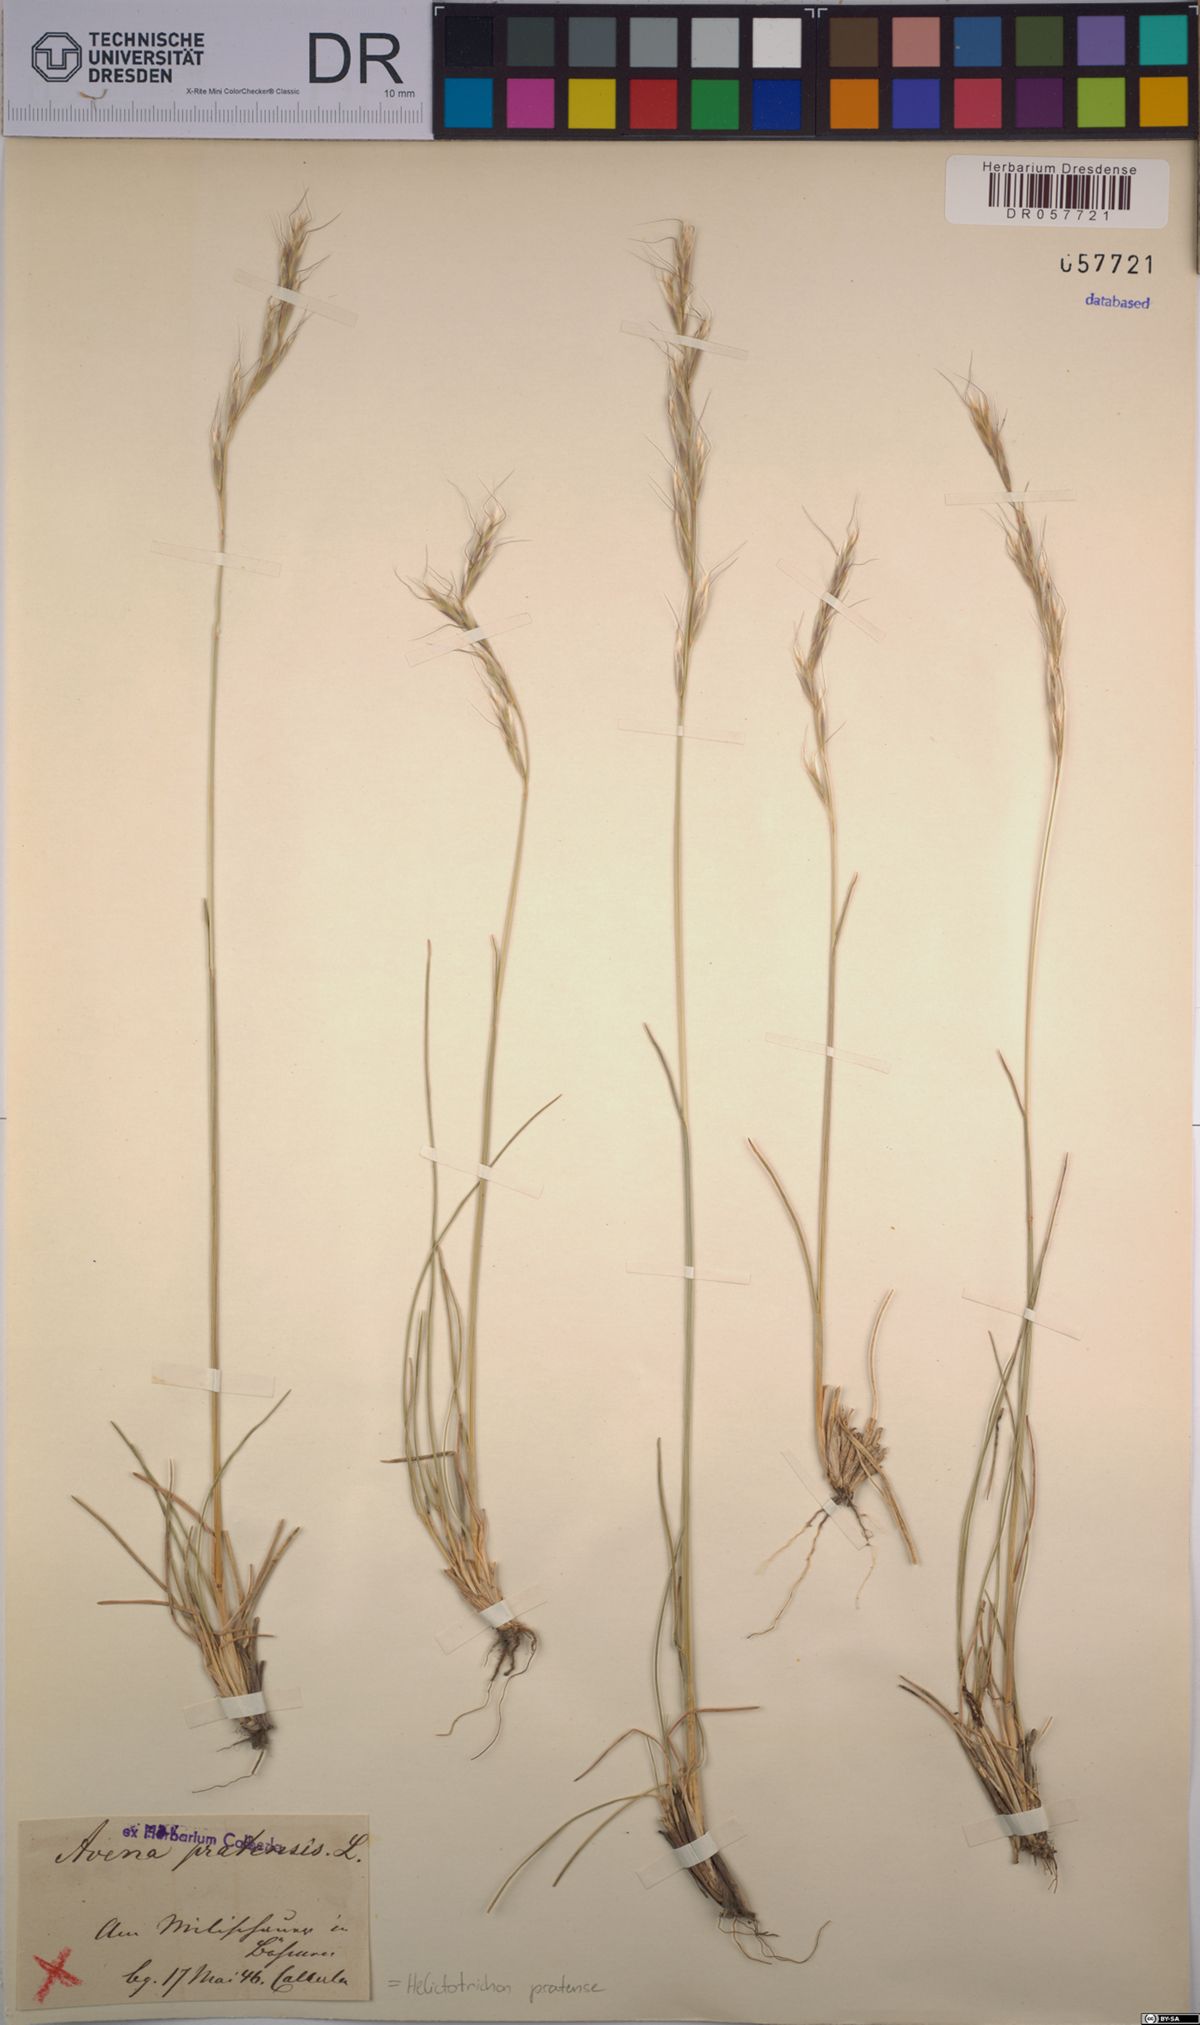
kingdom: Plantae
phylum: Tracheophyta
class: Liliopsida
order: Poales
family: Poaceae
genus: Helictochloa
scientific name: Helictochloa pratensis
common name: Meadow oat grass
